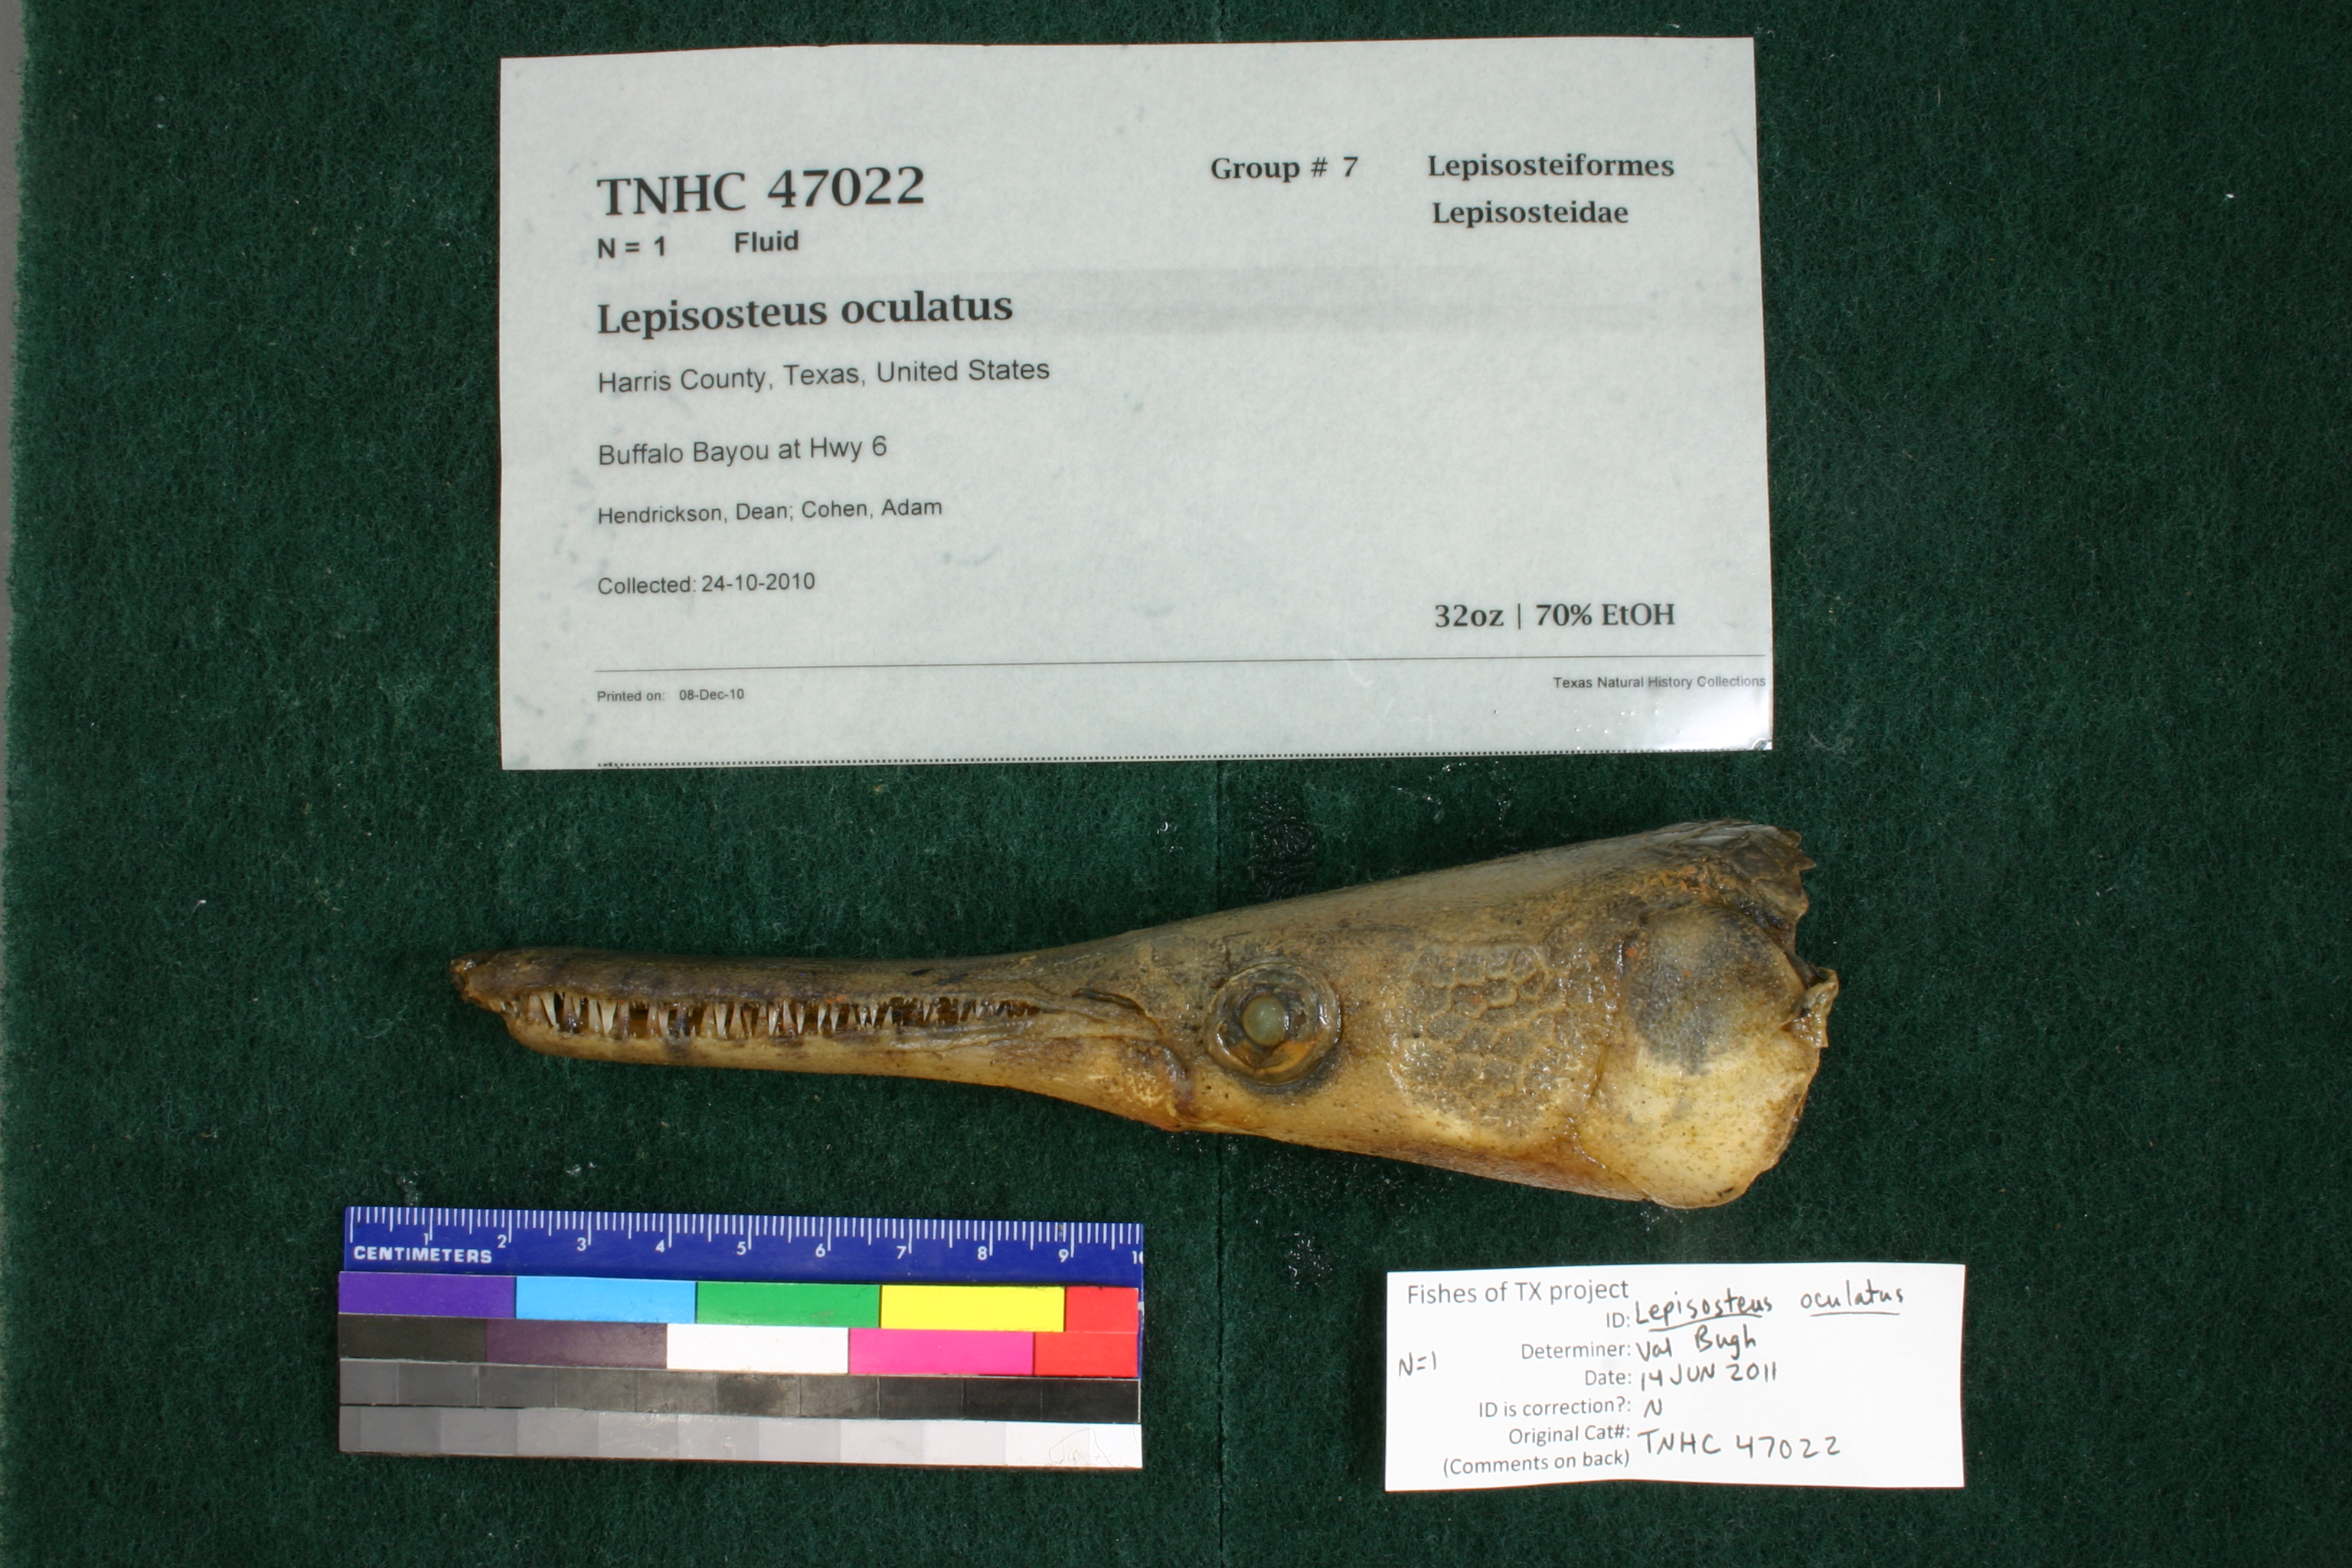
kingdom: Animalia
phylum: Chordata
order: Lepisosteiformes
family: Lepisosteidae
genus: Lepisosteus
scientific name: Lepisosteus oculatus
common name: Spotted gar
